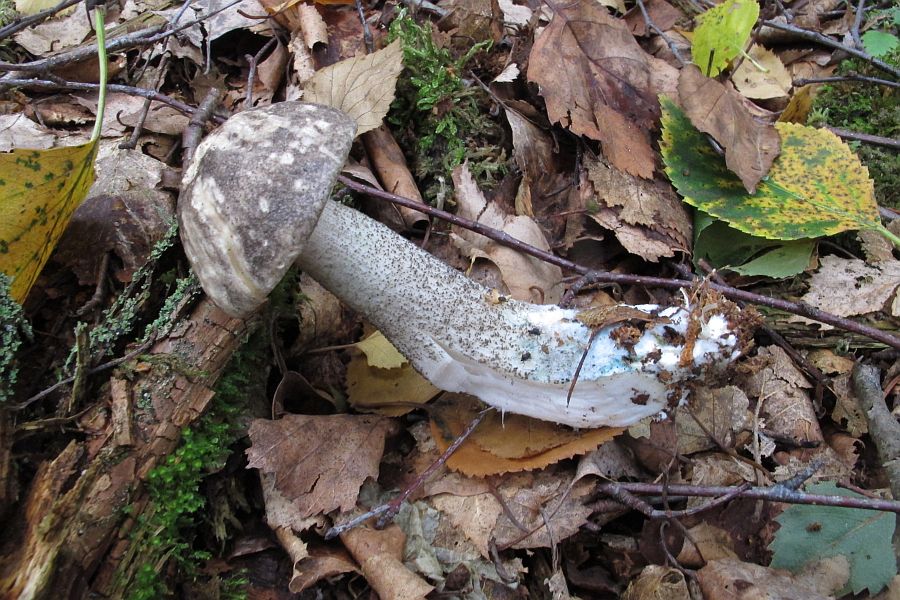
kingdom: Fungi
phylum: Basidiomycota
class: Agaricomycetes
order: Boletales
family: Boletaceae
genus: Leccinum
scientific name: Leccinum variicolor
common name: flammet skælrørhat
